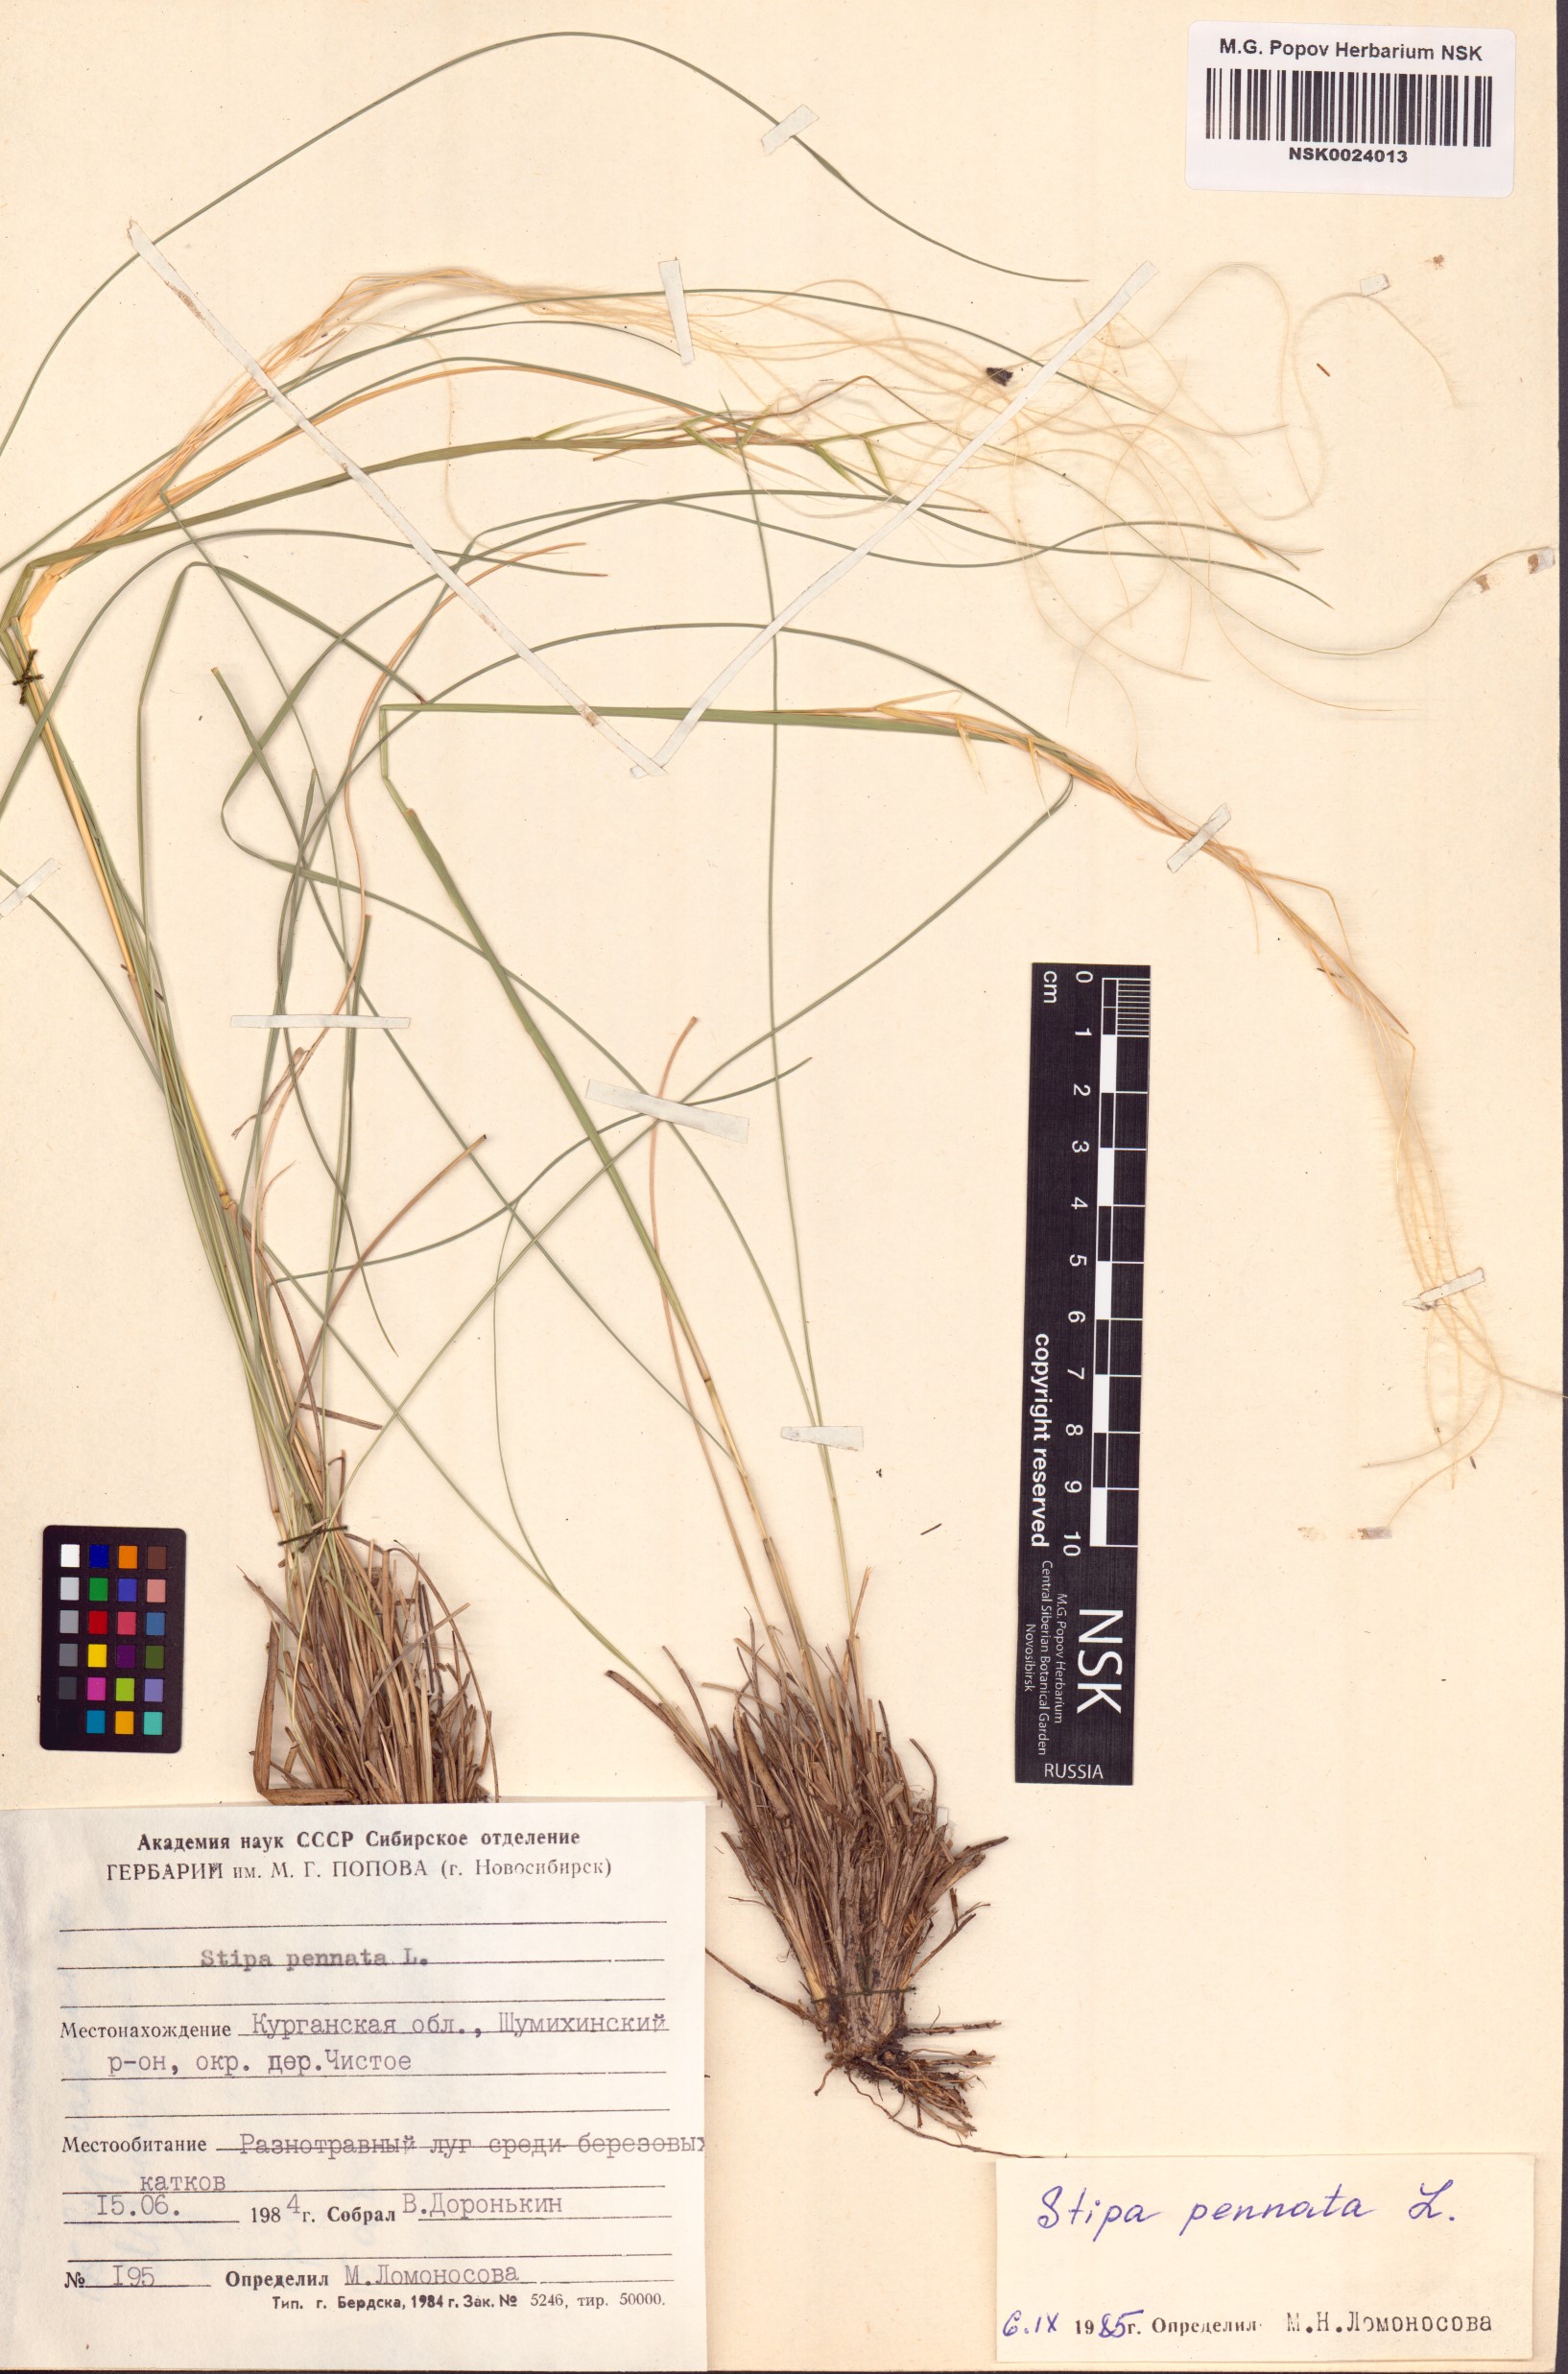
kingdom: Plantae
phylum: Tracheophyta
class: Liliopsida
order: Poales
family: Poaceae
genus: Stipa
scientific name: Stipa pennata
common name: European feather grass
